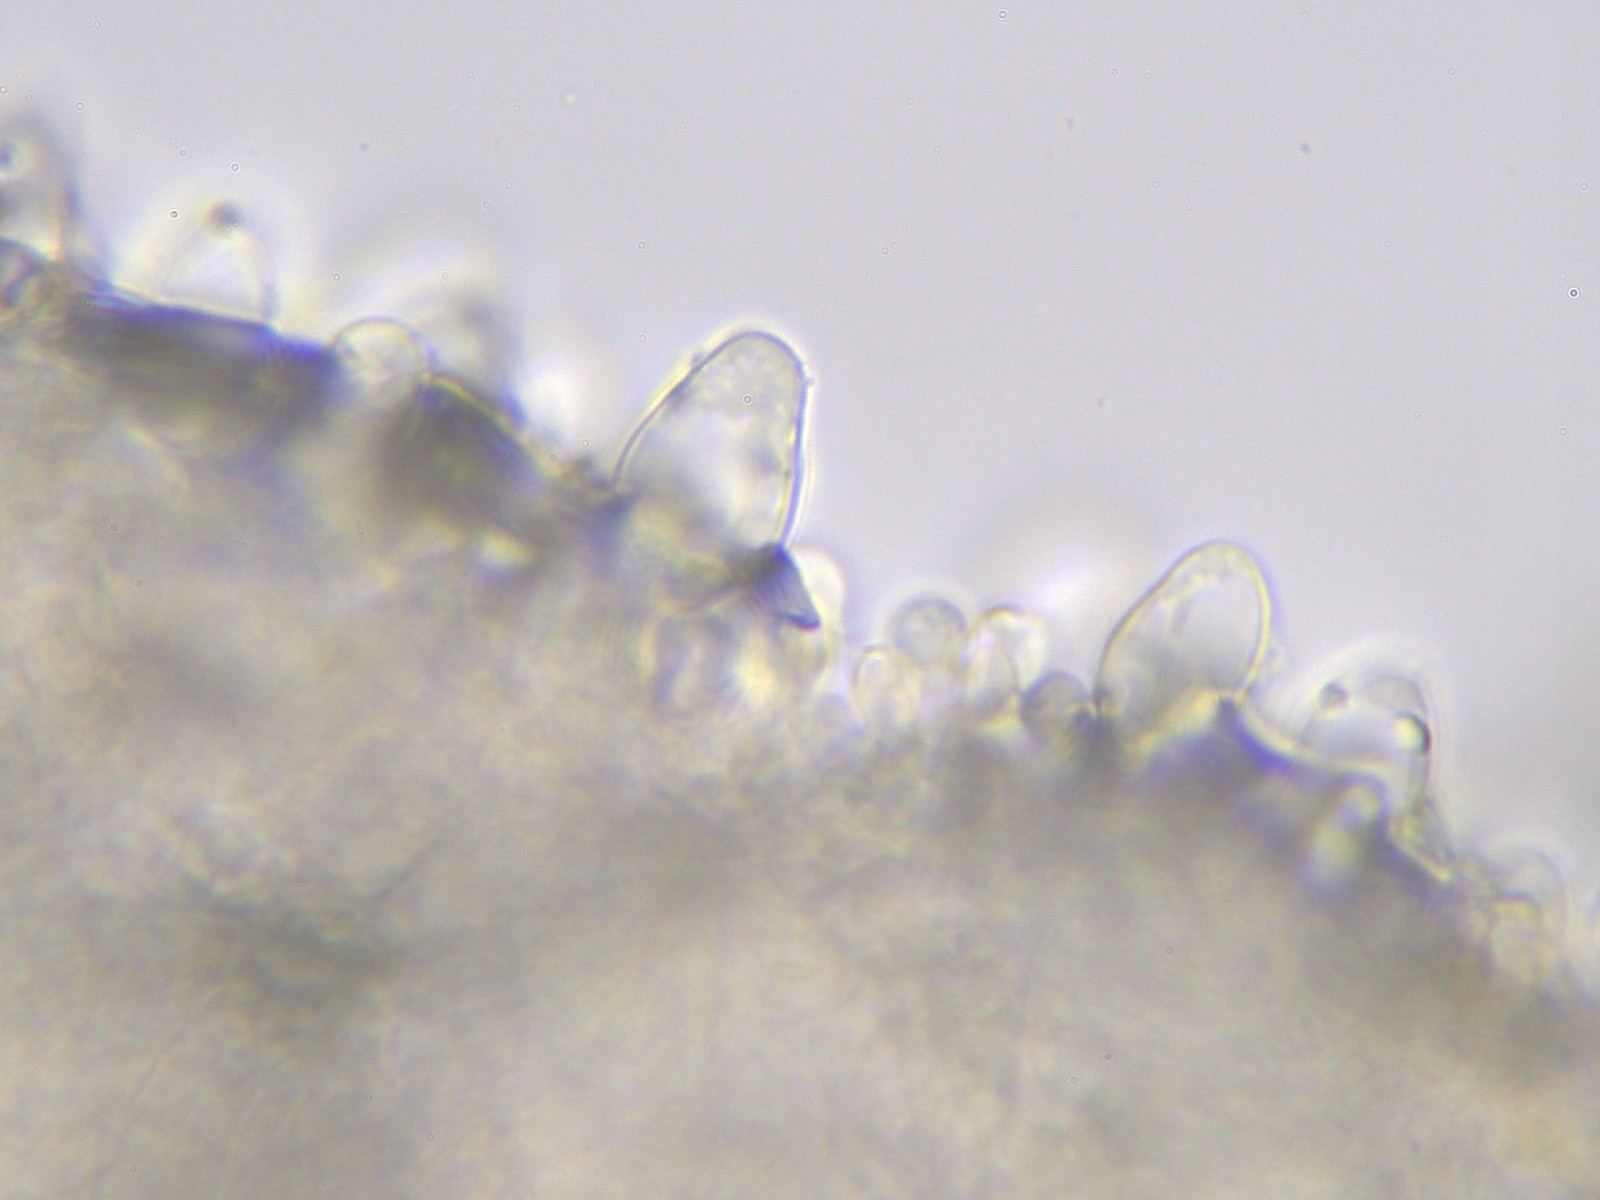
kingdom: Fungi
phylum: Basidiomycota
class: Agaricomycetes
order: Agaricales
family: Psathyrellaceae
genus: Psathyrella
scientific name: Psathyrella piluliformis
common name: lysstokket mørkhat
